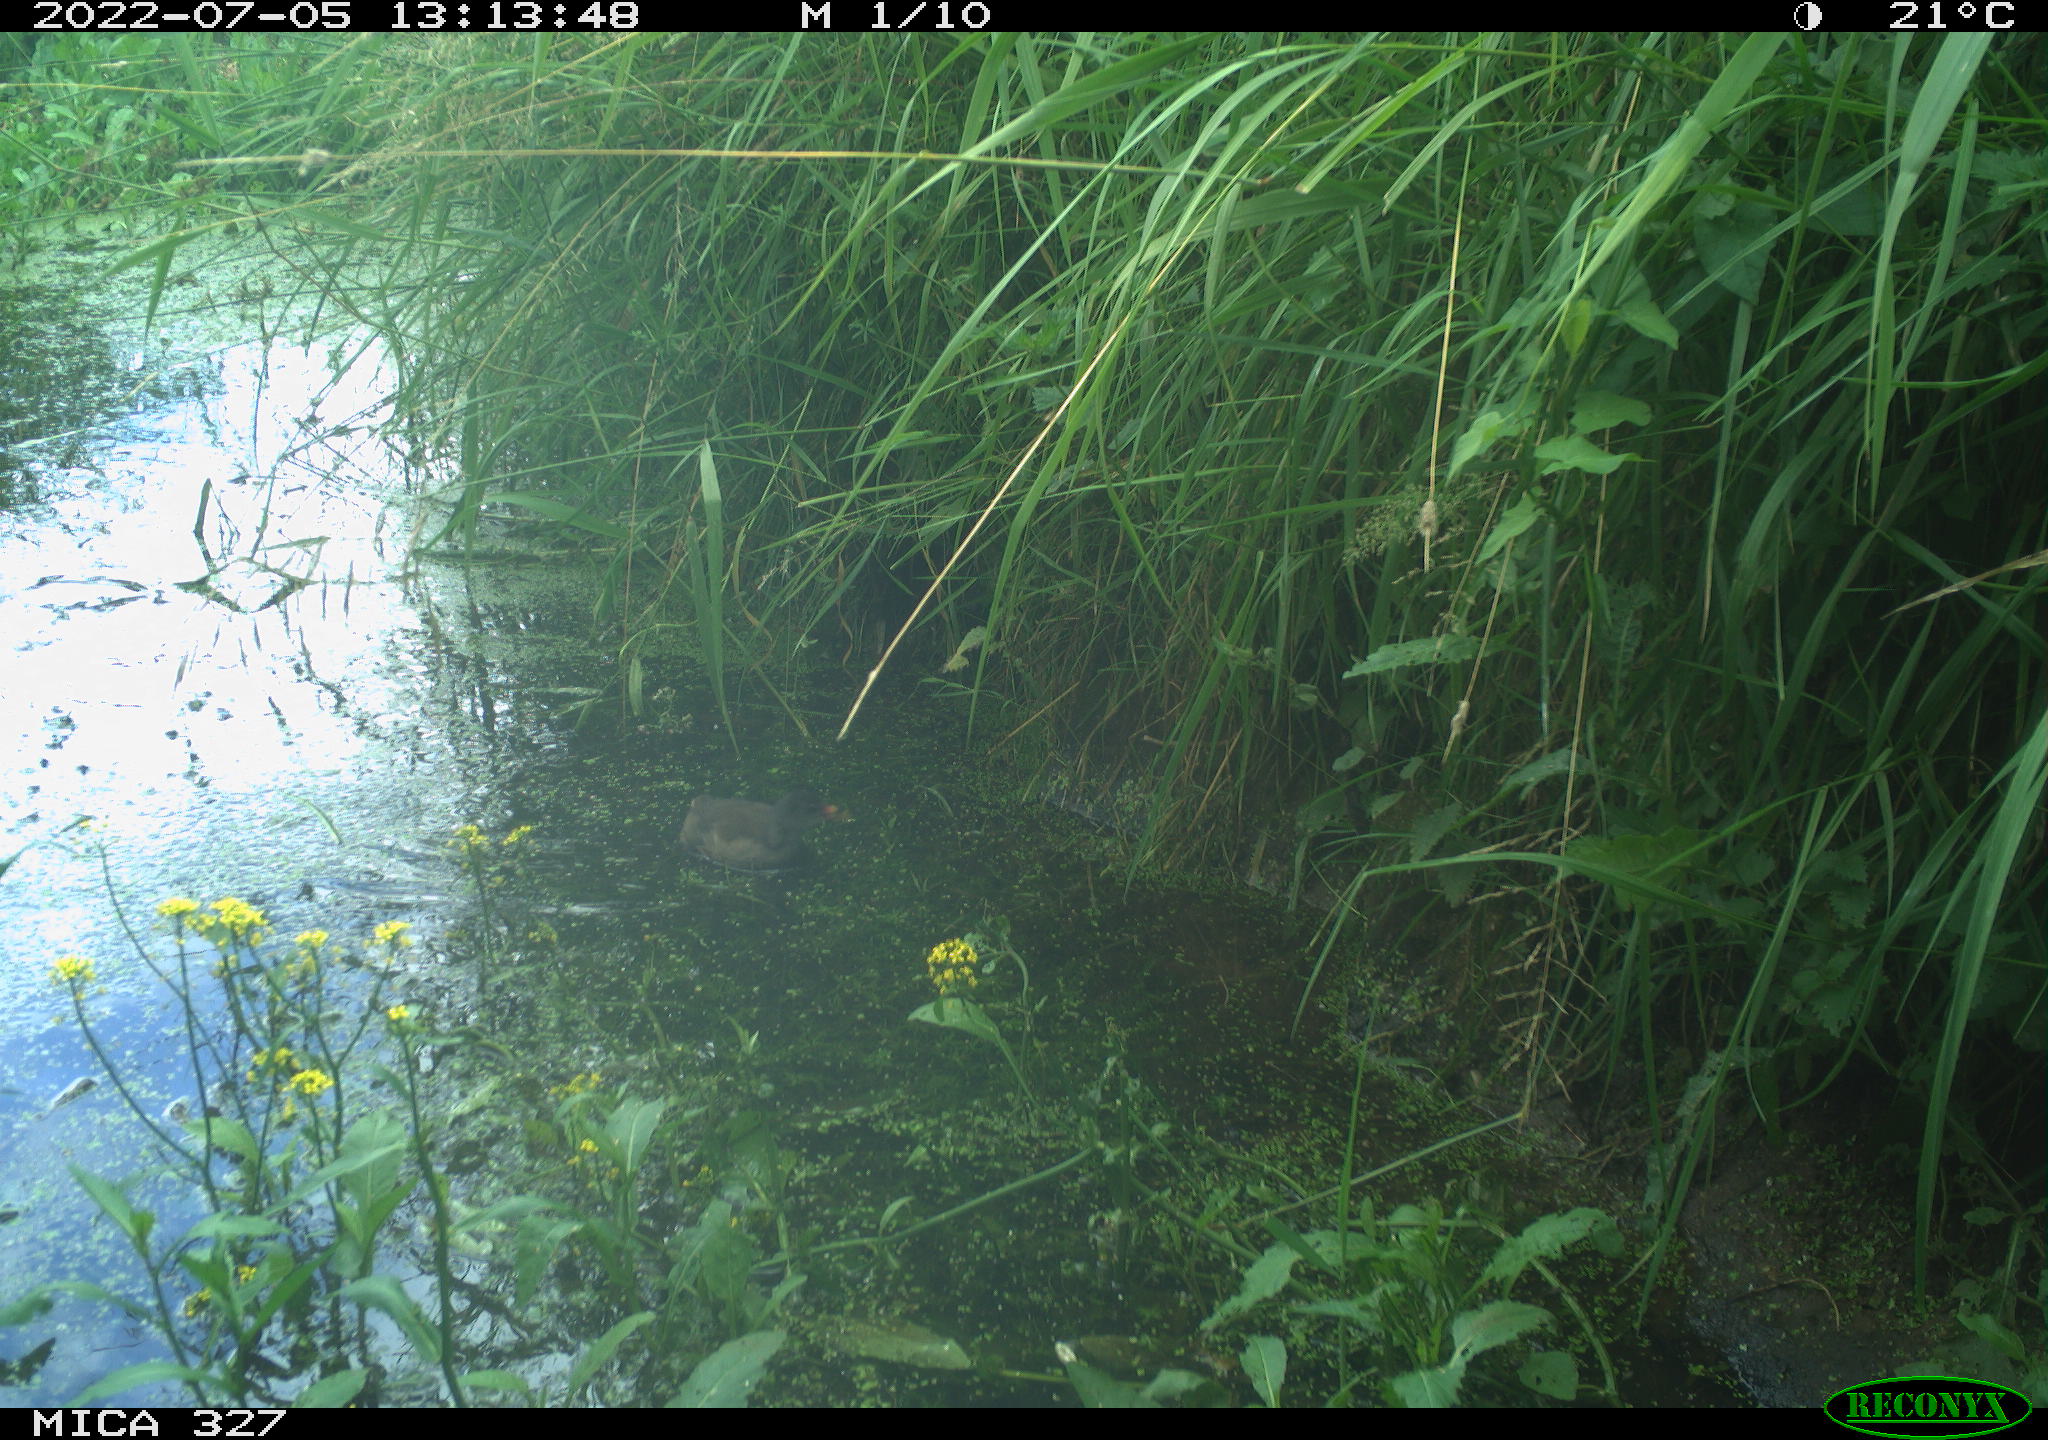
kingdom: Animalia
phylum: Chordata
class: Aves
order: Gruiformes
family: Rallidae
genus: Gallinula
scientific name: Gallinula chloropus
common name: Common moorhen
